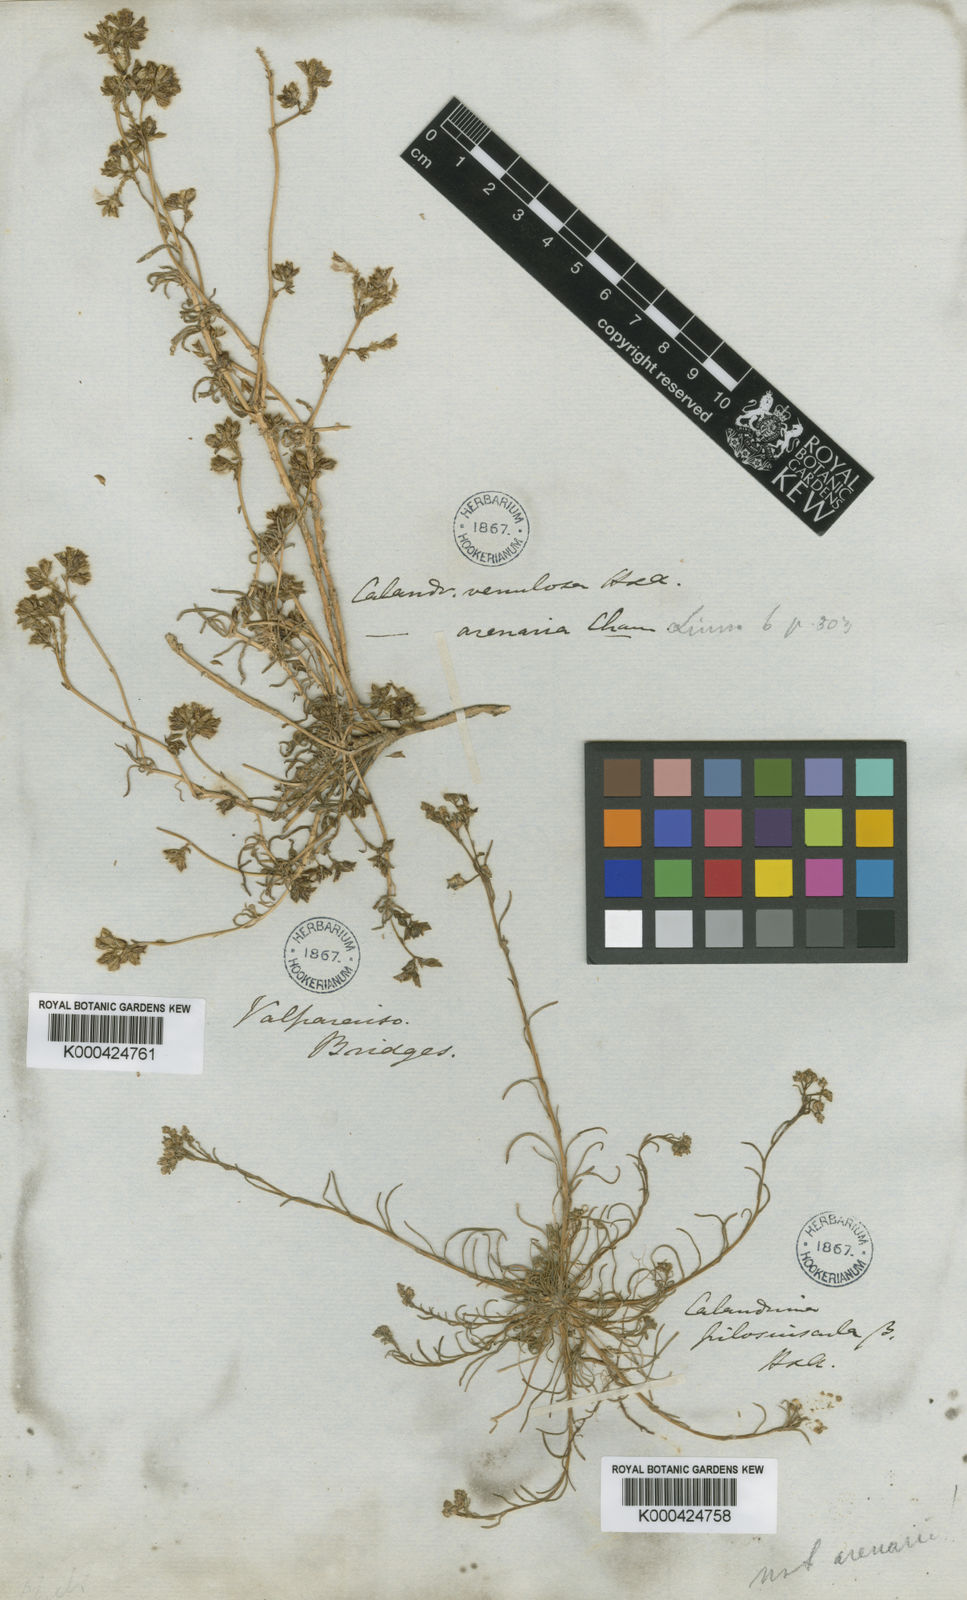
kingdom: Plantae
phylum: Tracheophyta
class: Magnoliopsida
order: Caryophyllales
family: Montiaceae
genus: Cistanthe
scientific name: Cistanthe arenaria
